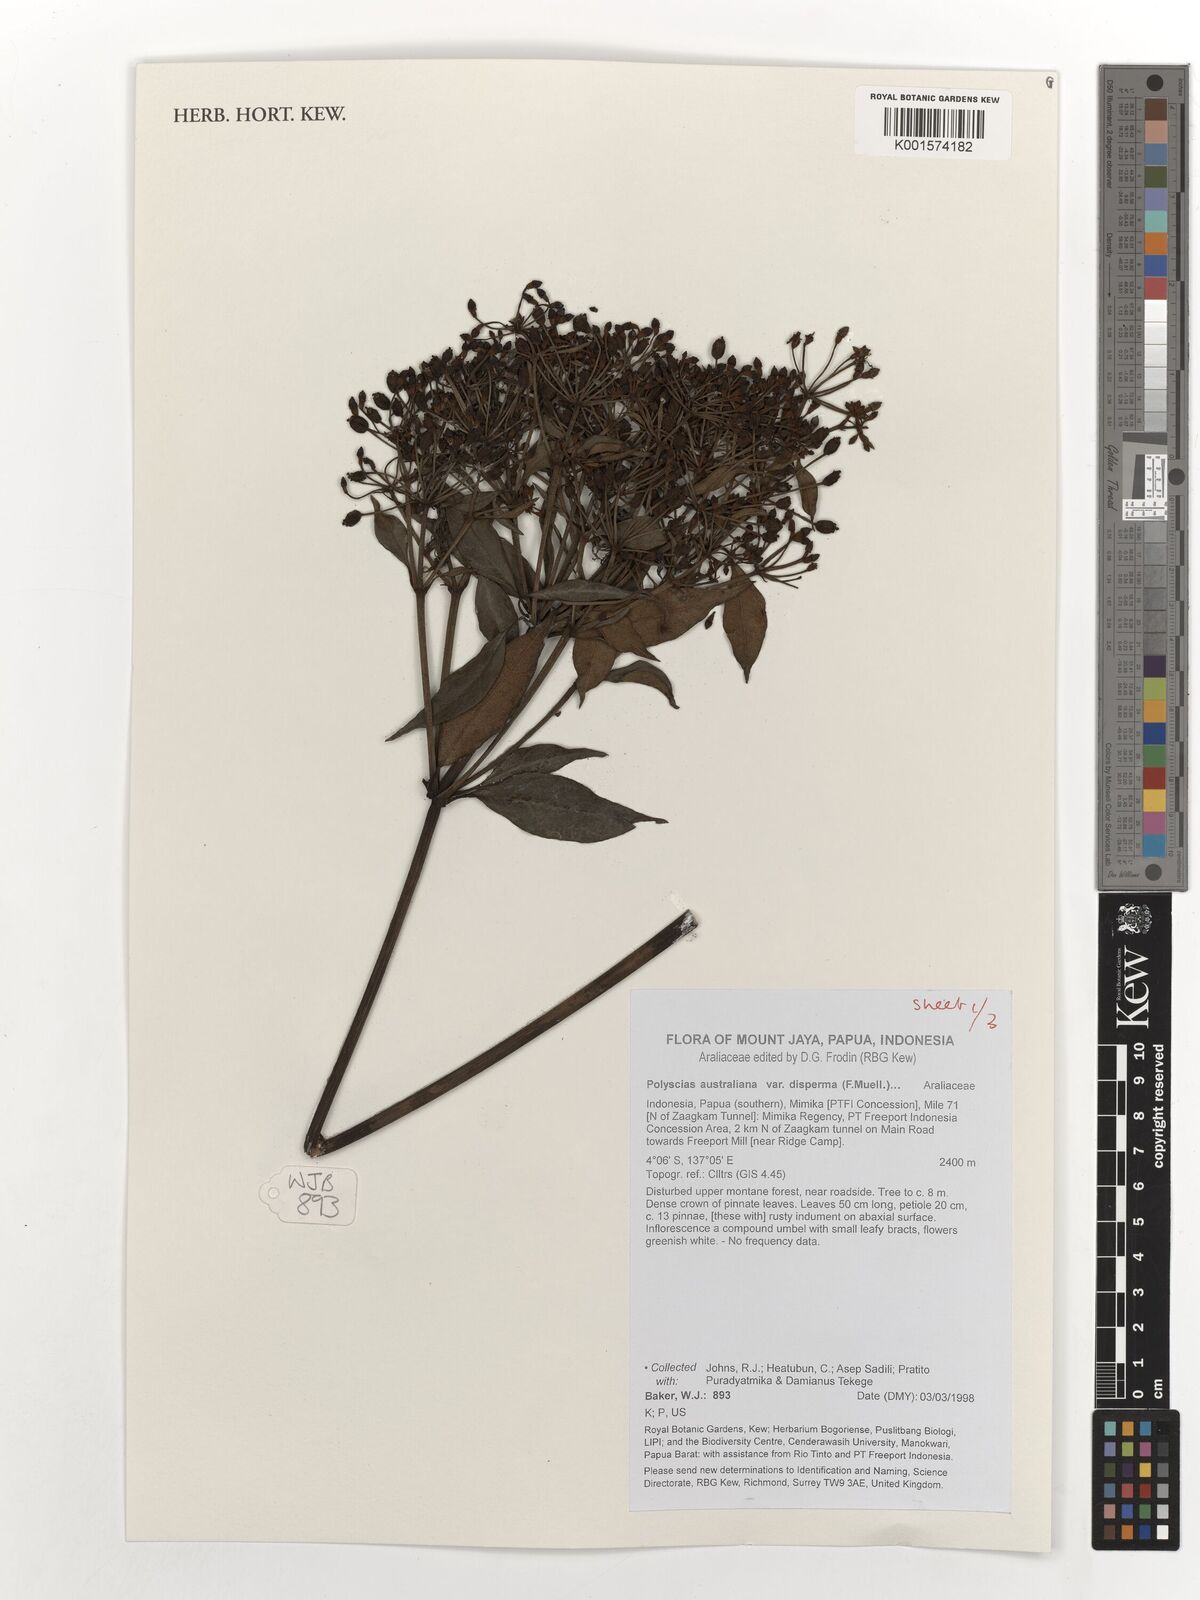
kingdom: Plantae
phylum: Tracheophyta
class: Magnoliopsida
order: Apiales
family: Araliaceae
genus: Polyscias
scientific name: Polyscias australiana
